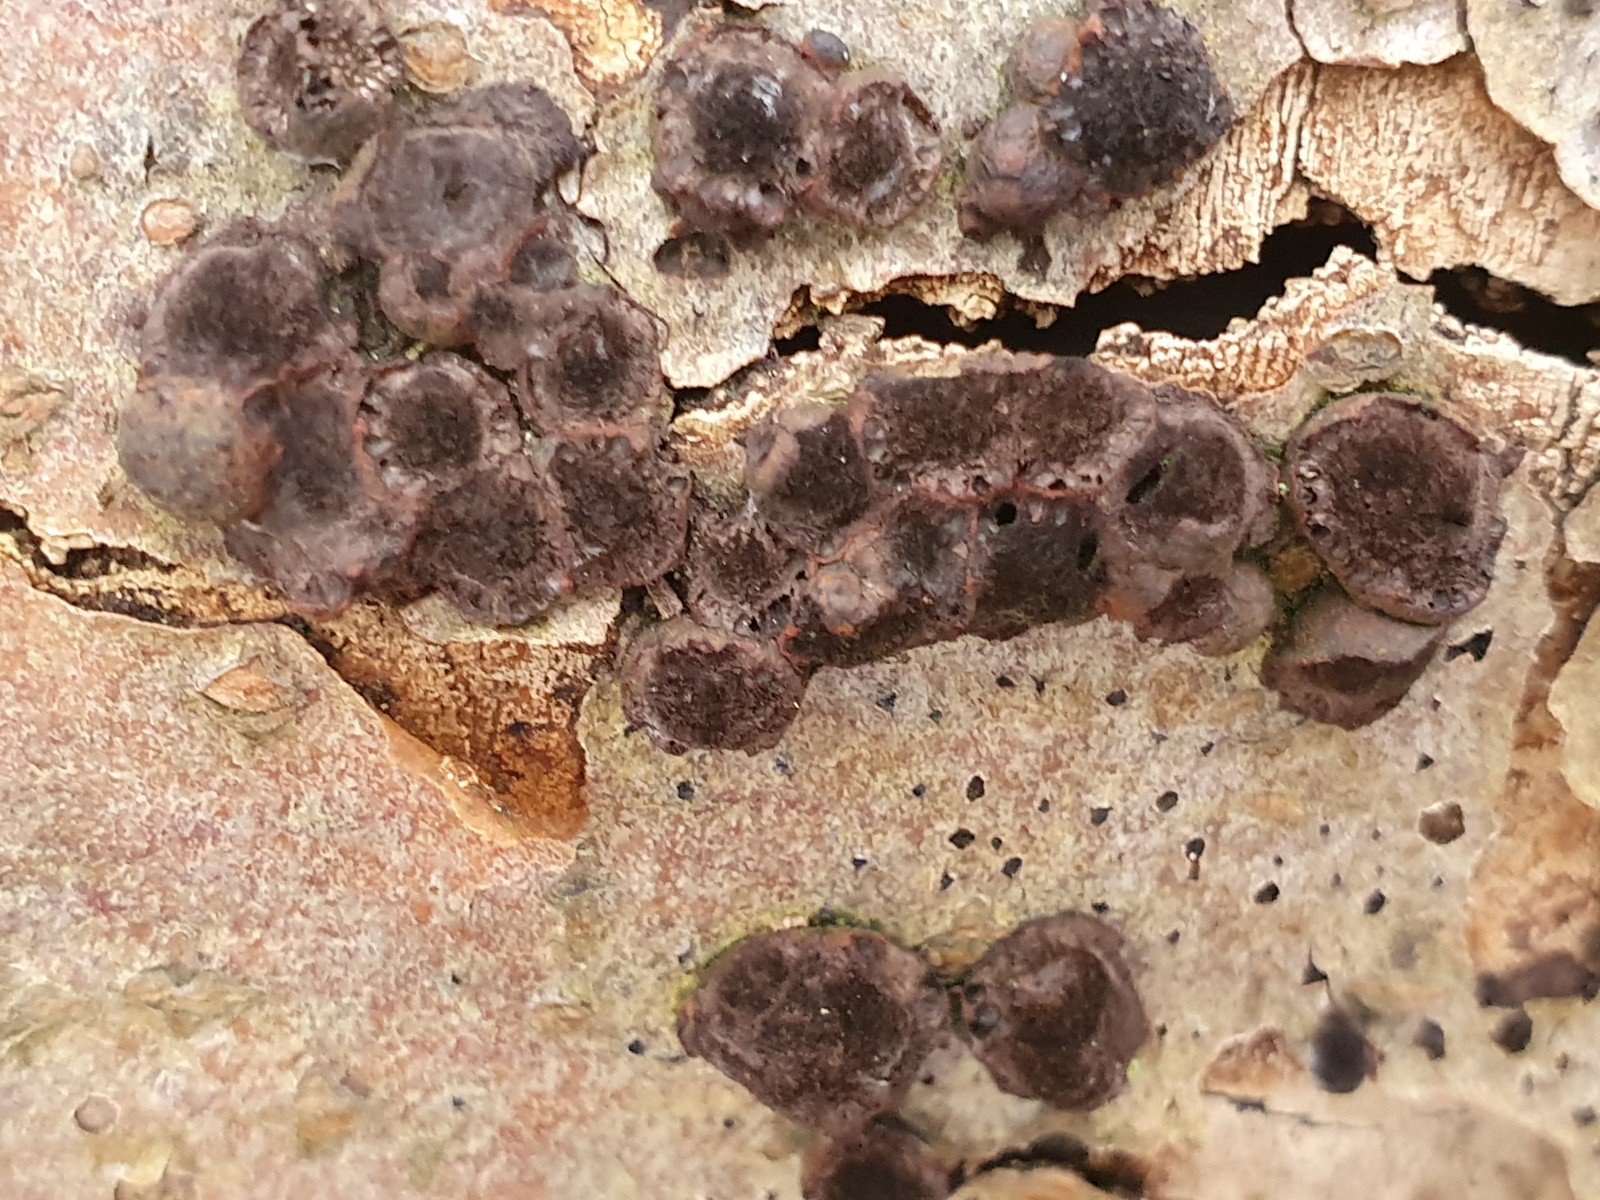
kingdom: Fungi
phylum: Ascomycota
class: Sordariomycetes
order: Xylariales
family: Hypoxylaceae
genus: Hypoxylon
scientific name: Hypoxylon fragiforme
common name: kuljordbær
